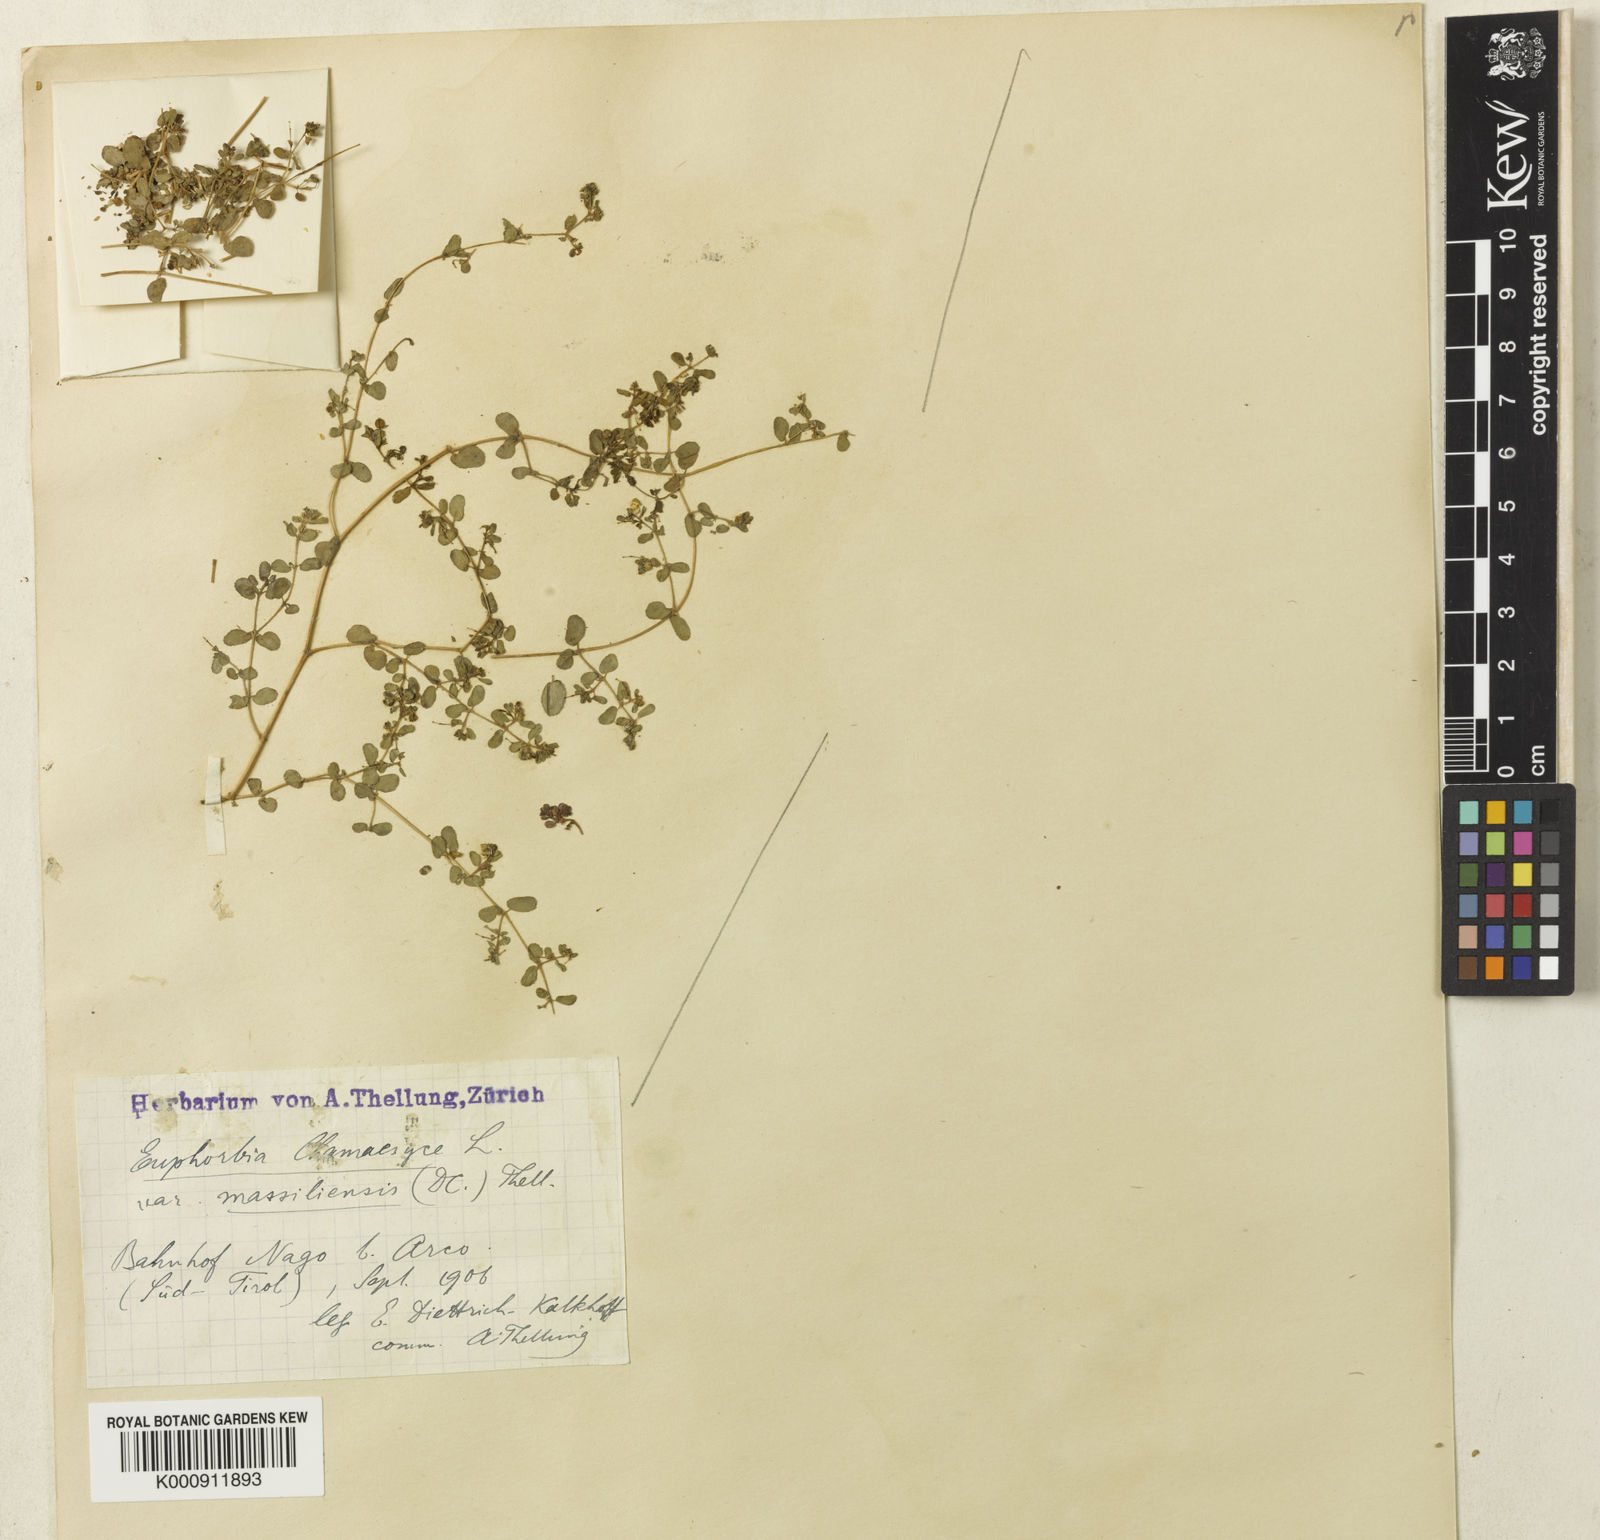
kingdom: Plantae
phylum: Tracheophyta
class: Magnoliopsida
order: Malpighiales
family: Euphorbiaceae
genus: Euphorbia
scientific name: Euphorbia chamaesyce
